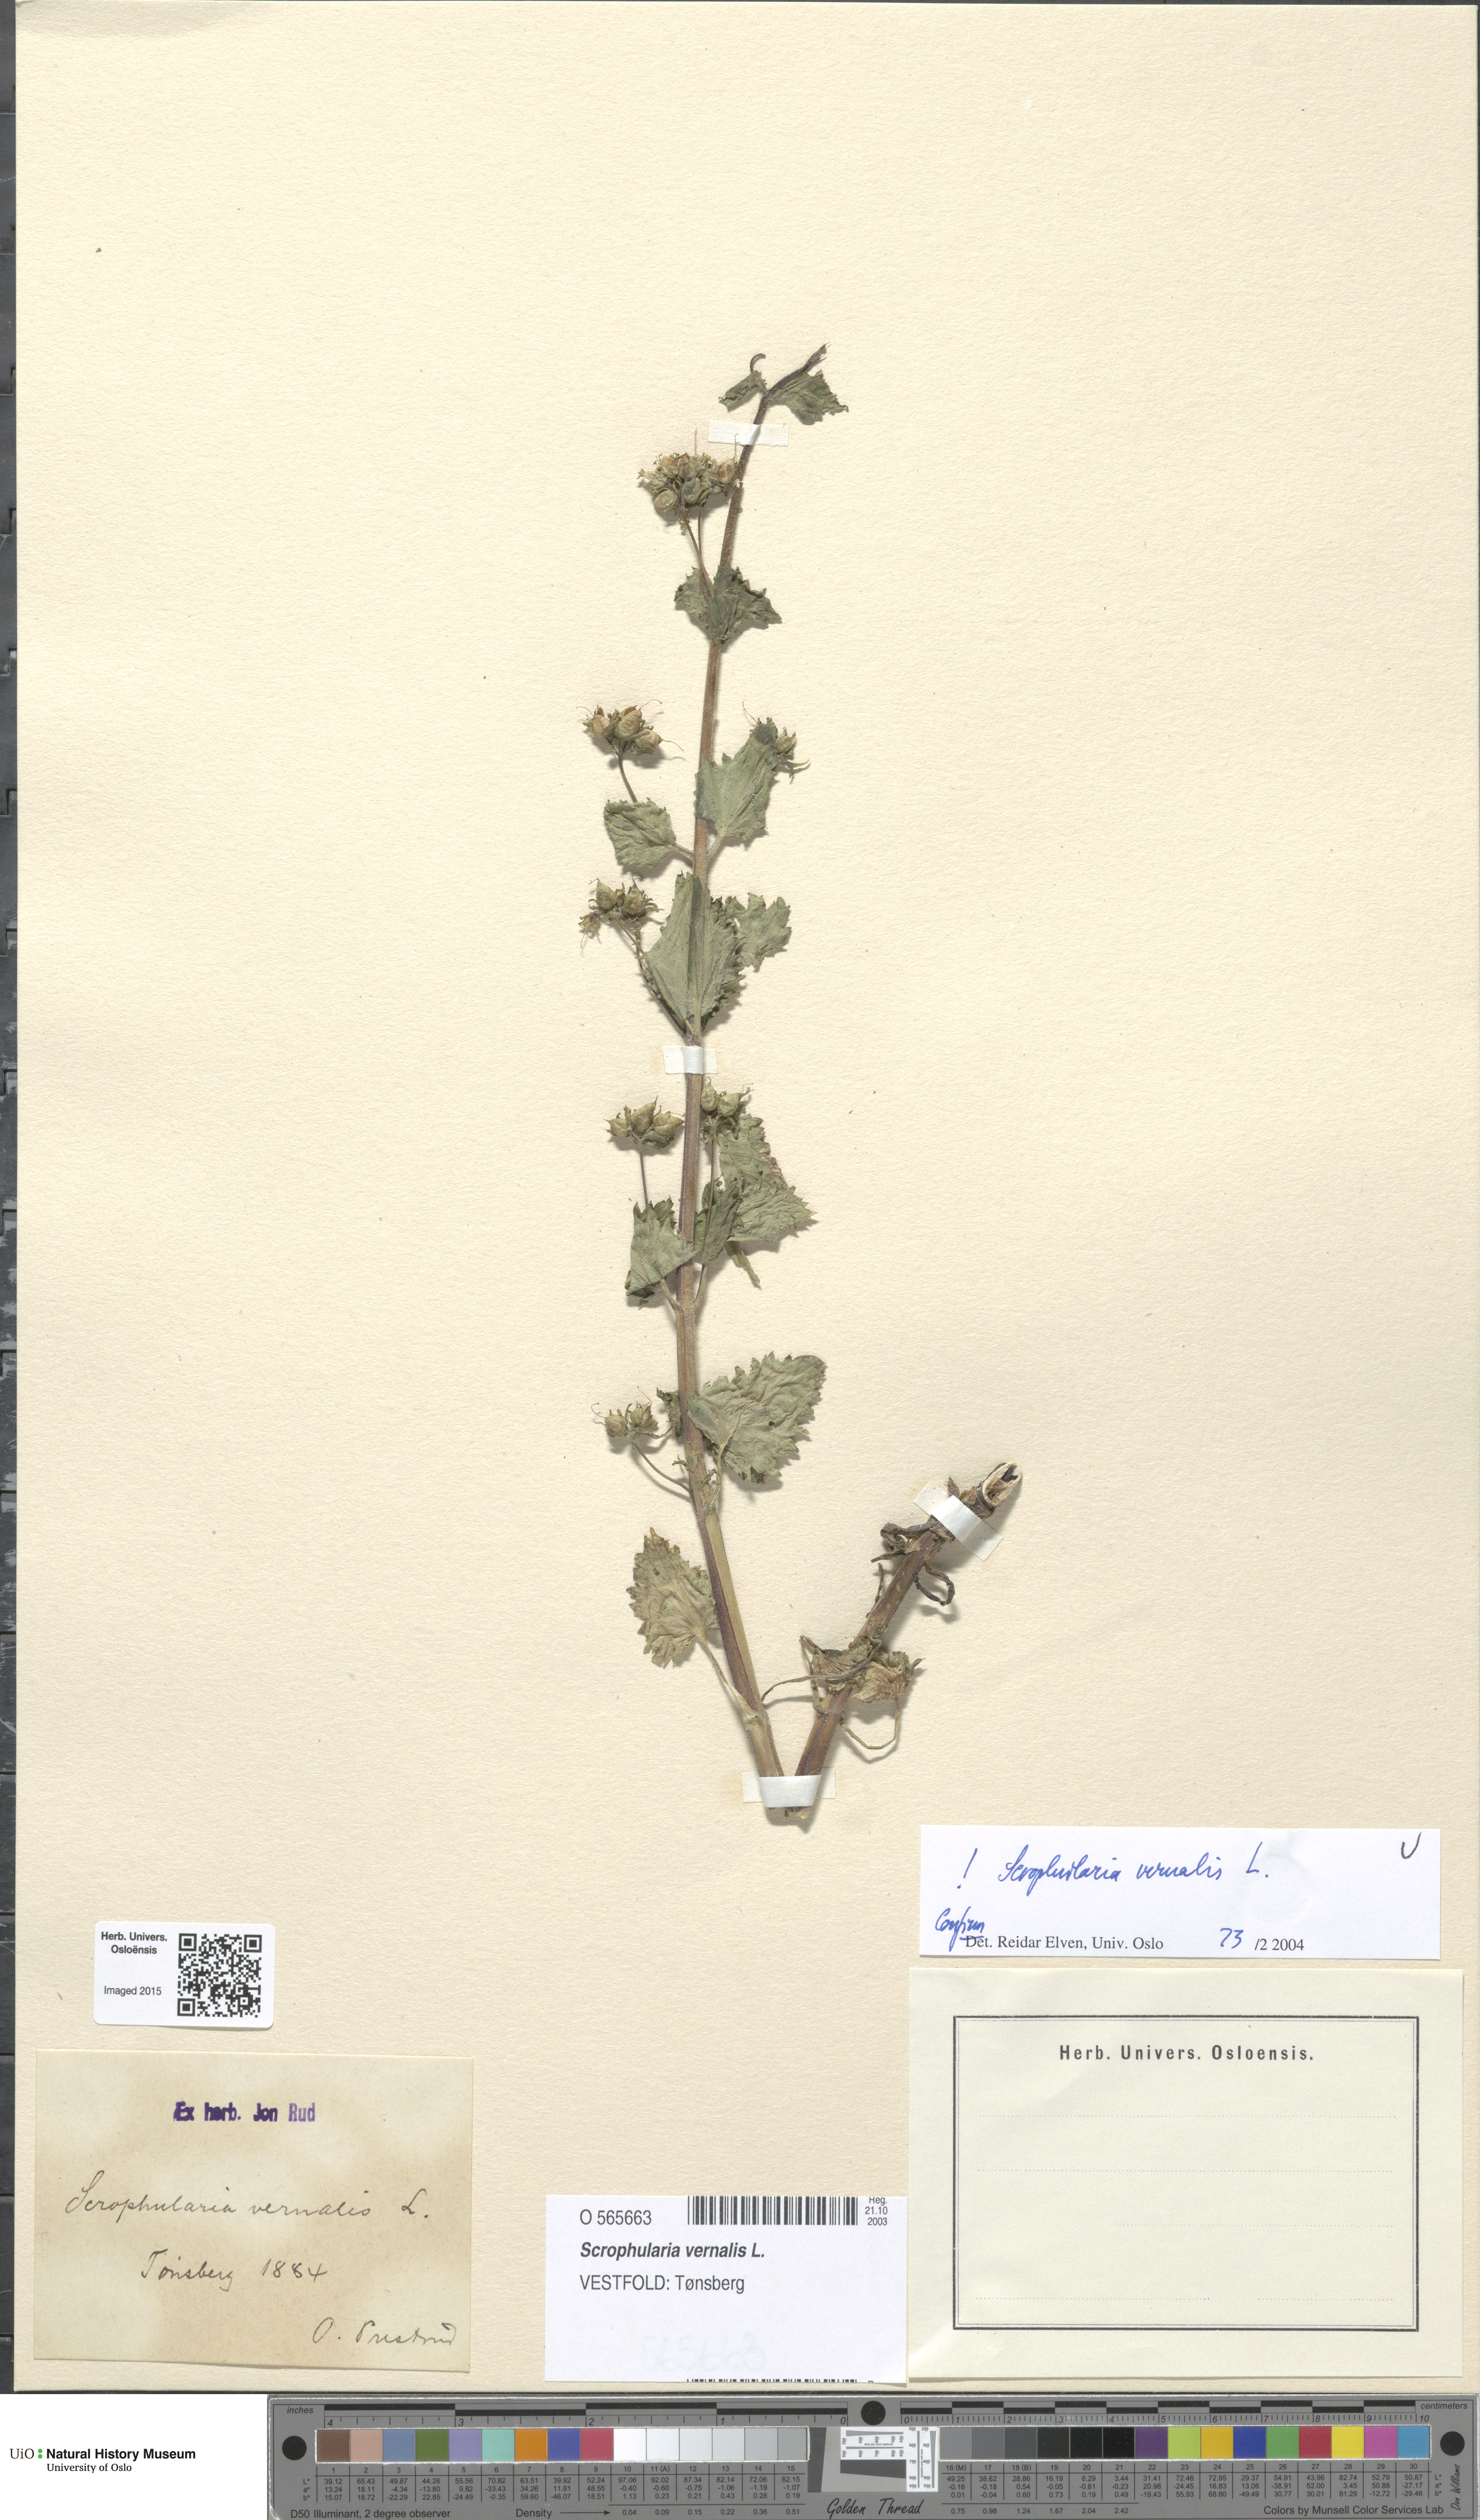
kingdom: Plantae
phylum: Tracheophyta
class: Magnoliopsida
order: Lamiales
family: Scrophulariaceae
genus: Scrophularia
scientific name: Scrophularia vernalis
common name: Yellow figwort
